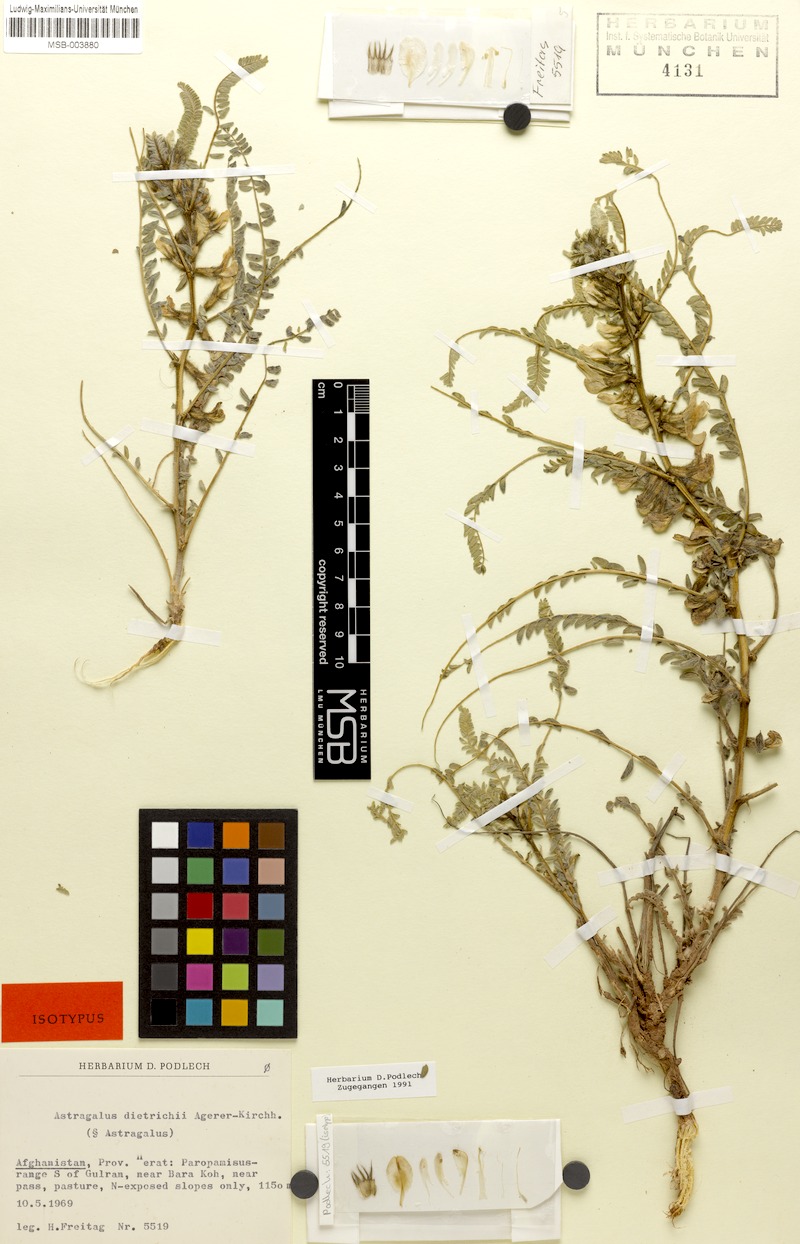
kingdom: Plantae
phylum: Tracheophyta
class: Magnoliopsida
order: Fabales
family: Fabaceae
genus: Astragalus
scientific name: Astragalus basineri
